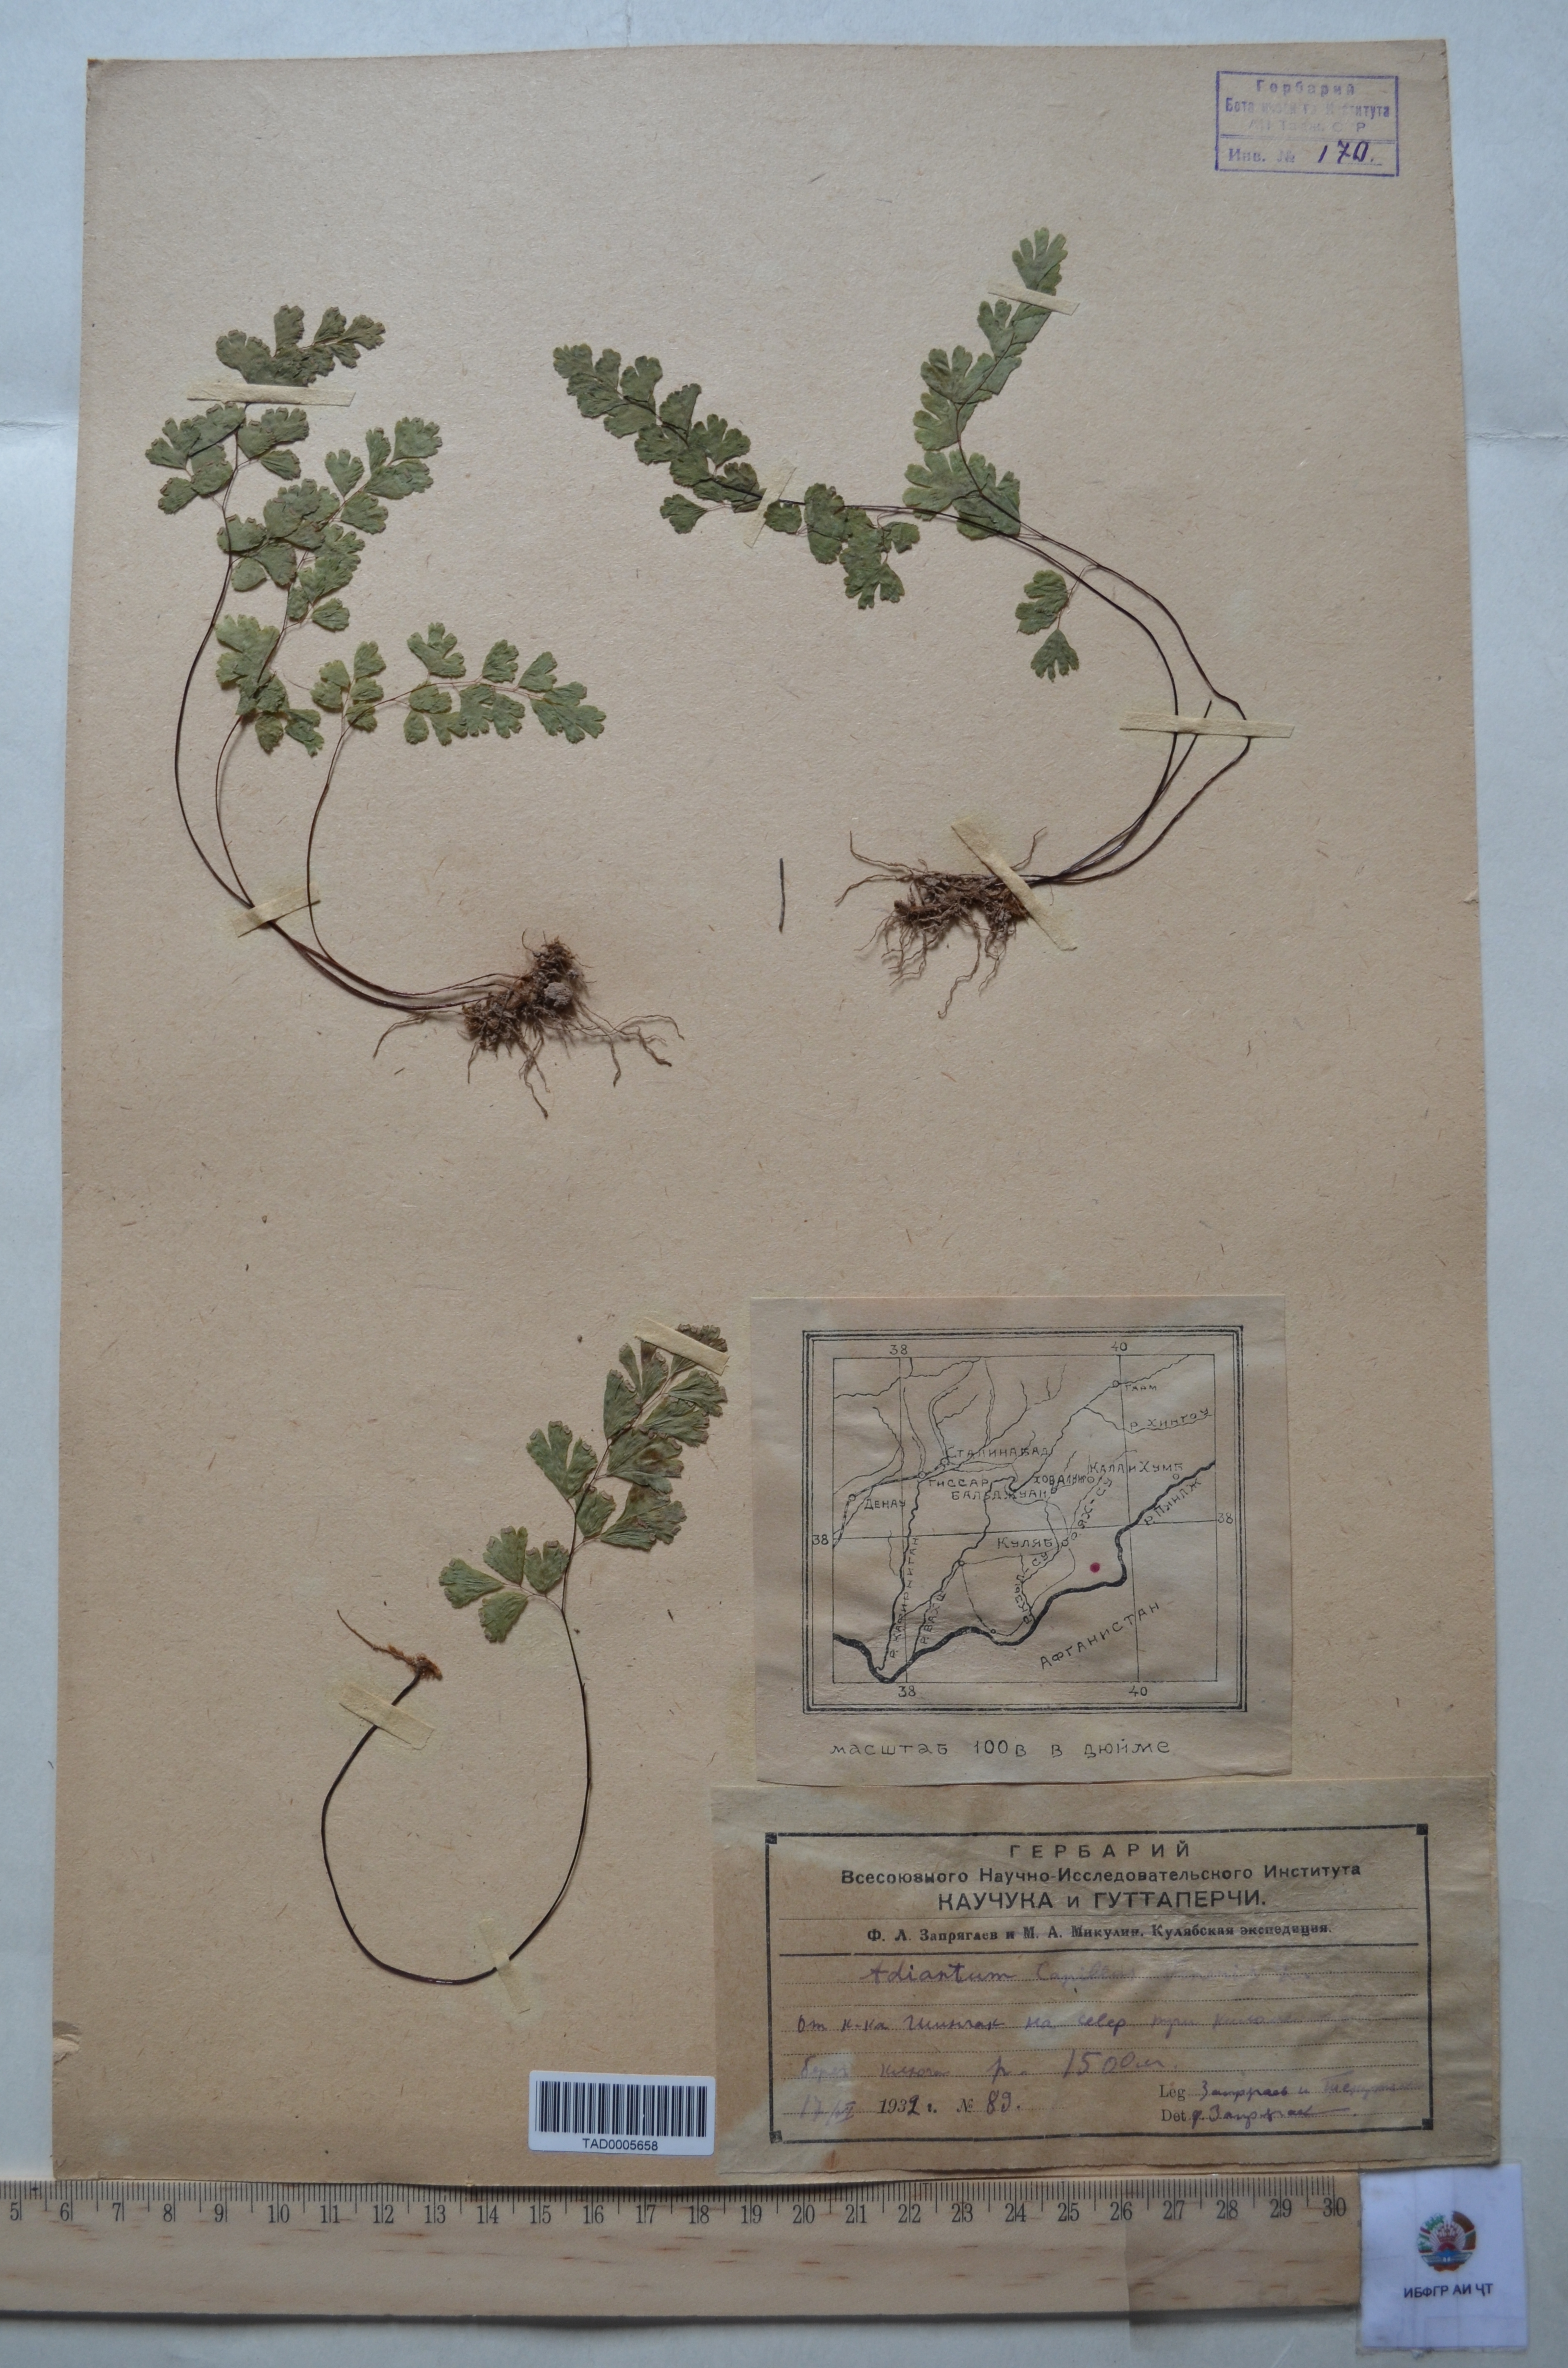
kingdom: Plantae
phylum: Tracheophyta
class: Polypodiopsida
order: Polypodiales
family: Pteridaceae
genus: Adiantum
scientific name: Adiantum capillus-veneris
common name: Maidenhair fern
